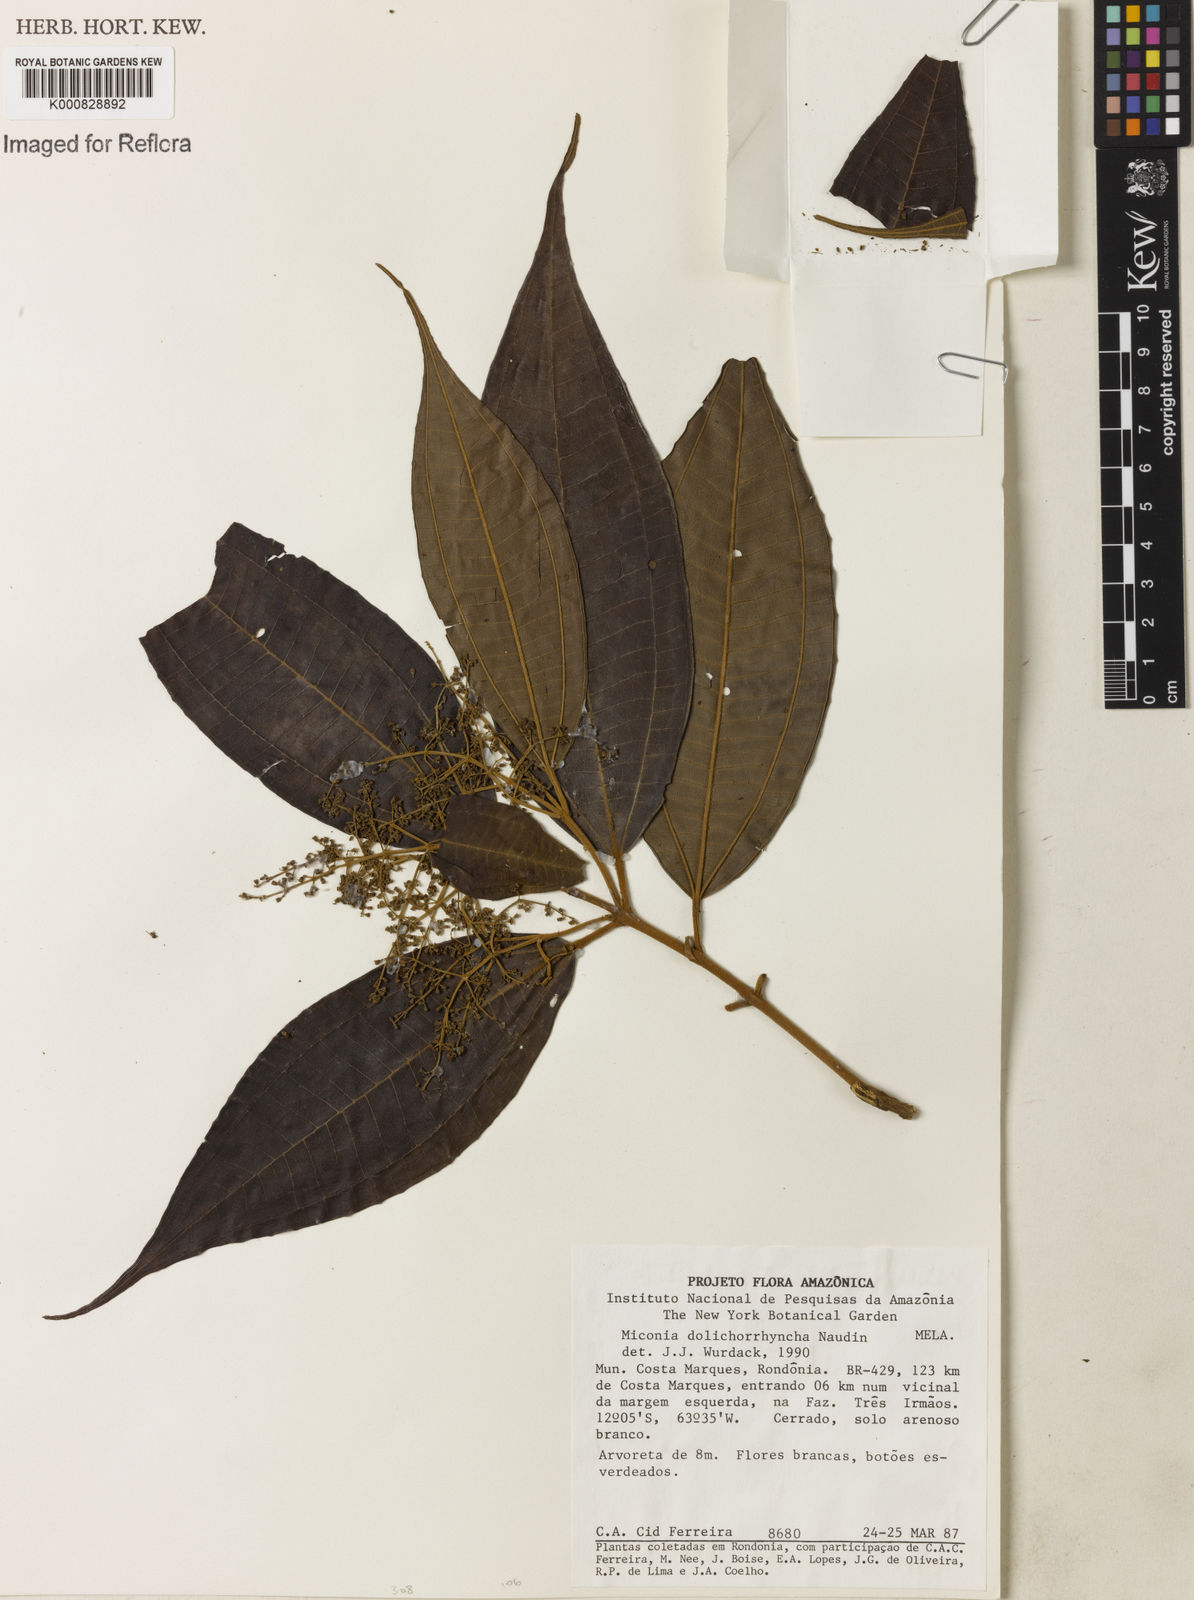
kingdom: Plantae
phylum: Tracheophyta
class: Magnoliopsida
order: Myrtales
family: Melastomataceae
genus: Miconia
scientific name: Miconia dolichorrhyncha
